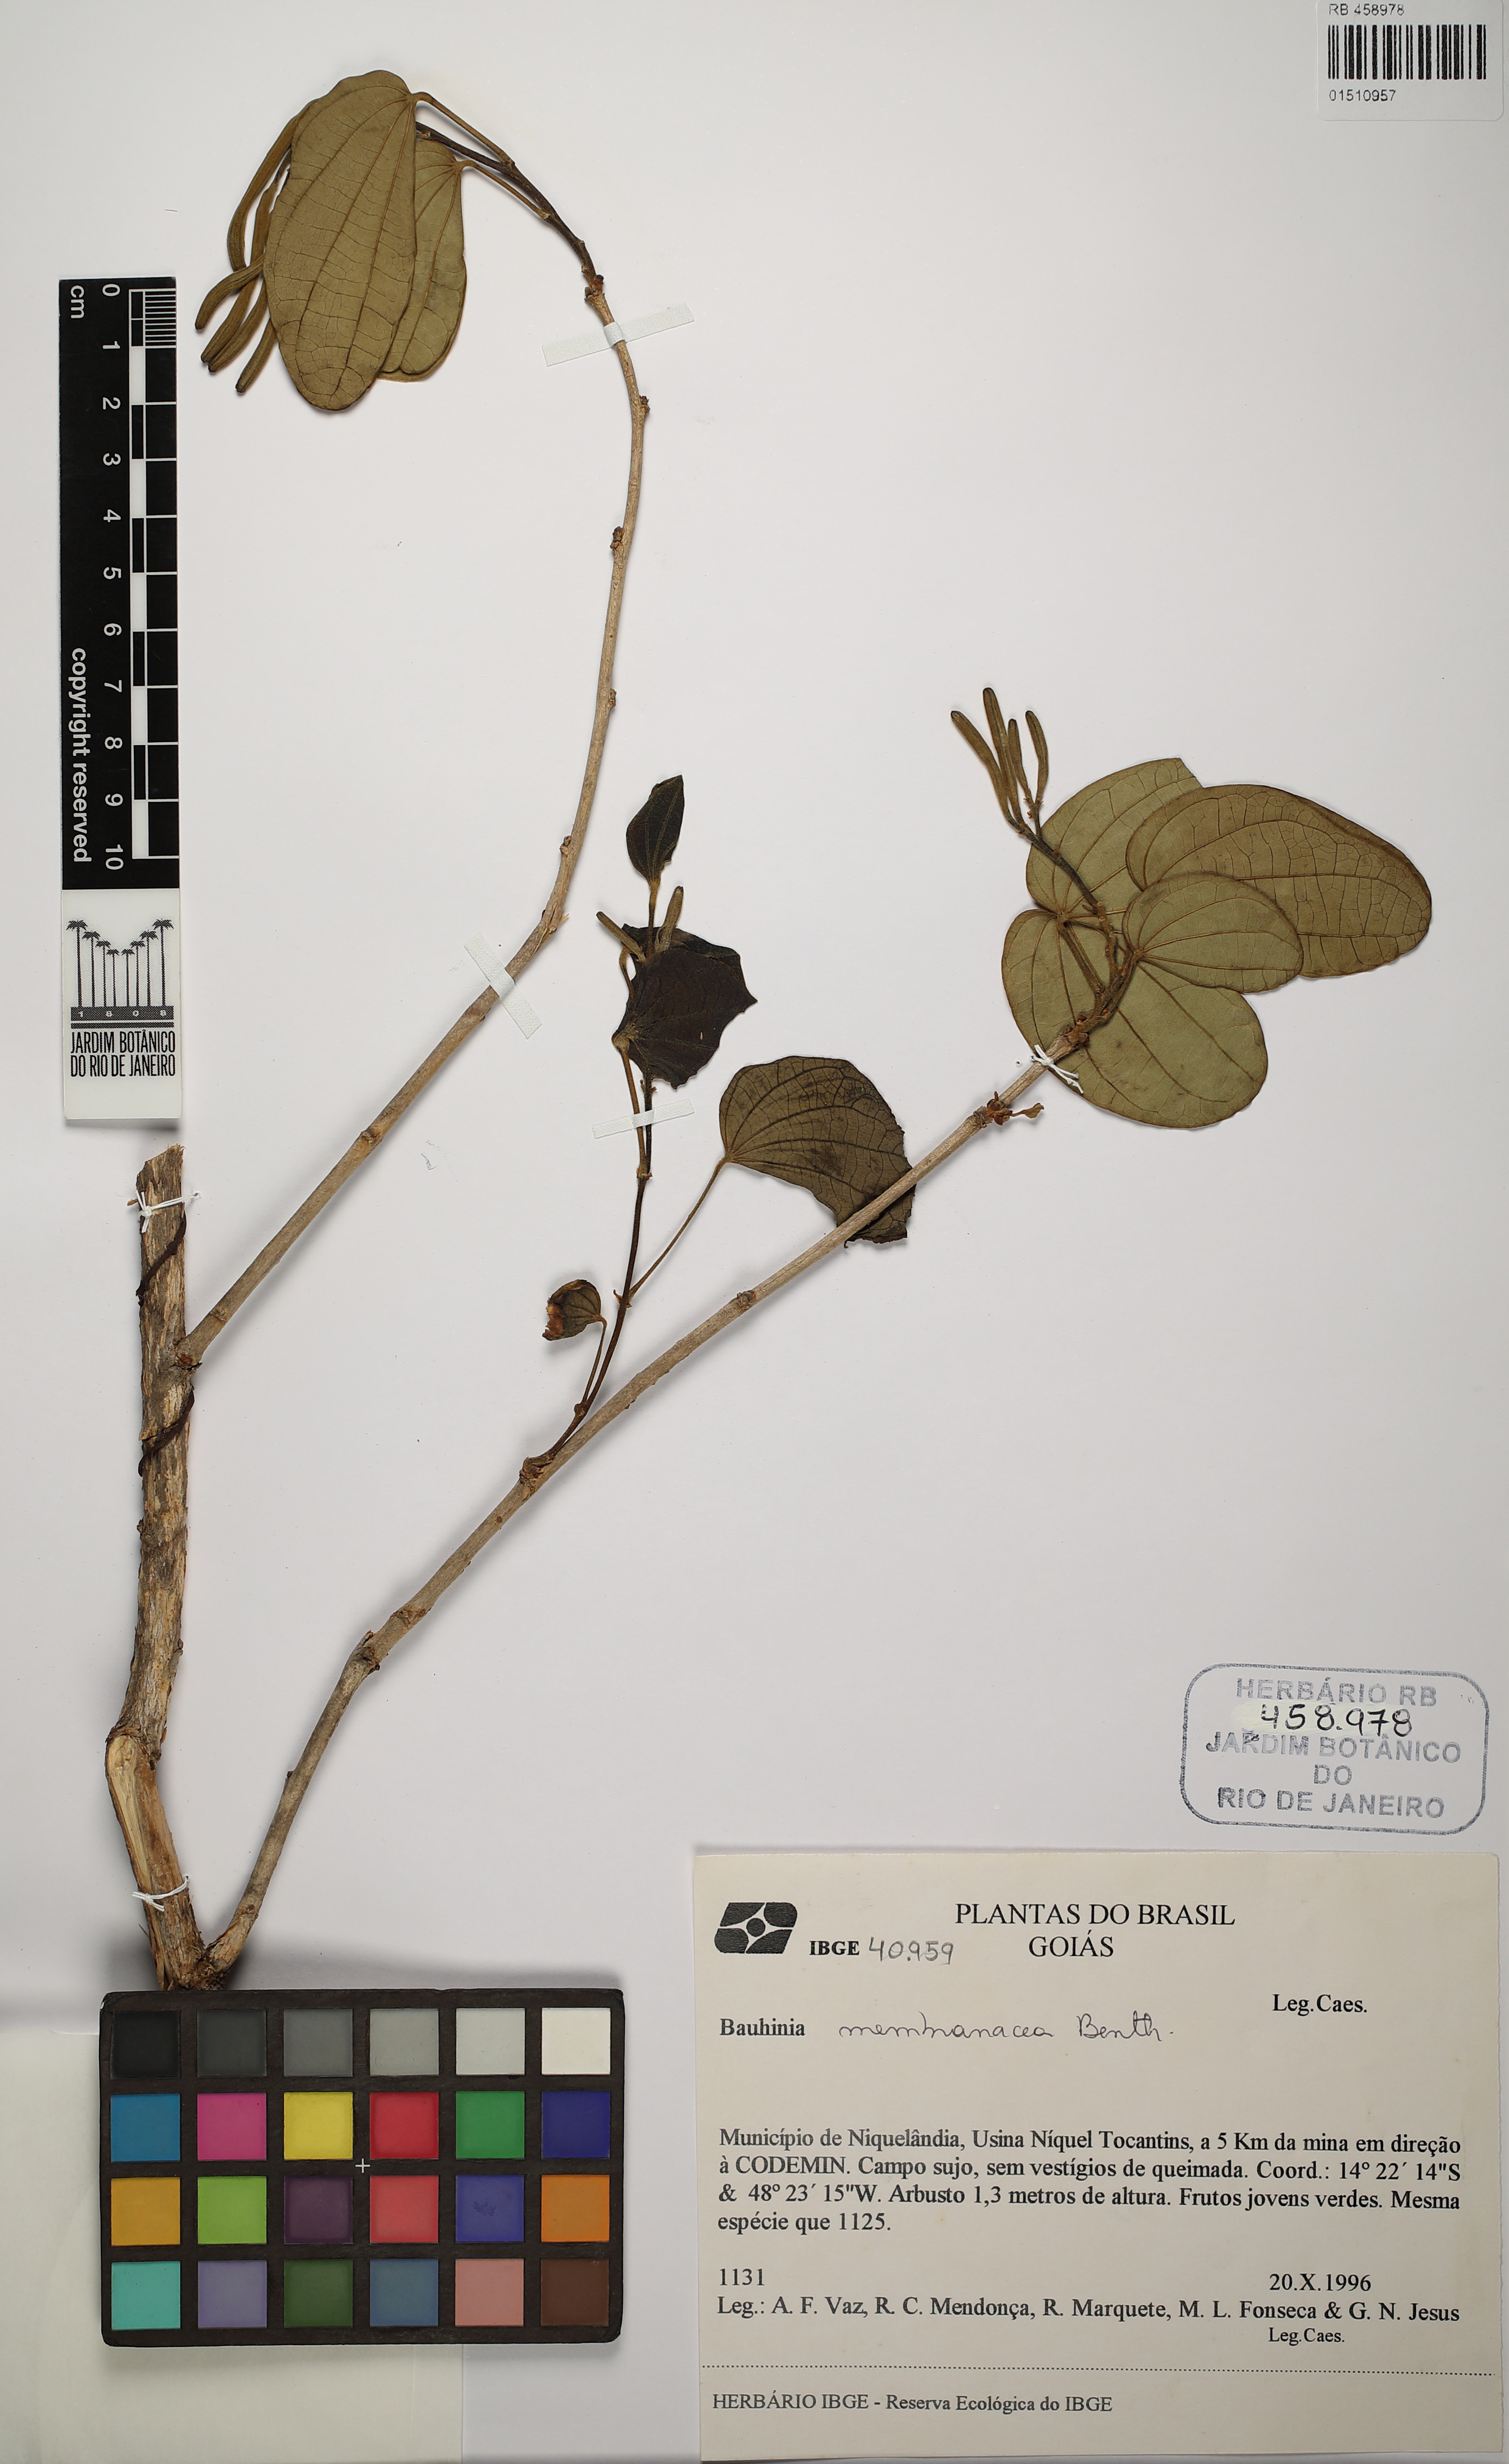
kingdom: Plantae
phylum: Tracheophyta
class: Magnoliopsida
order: Fabales
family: Fabaceae
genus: Bauhinia
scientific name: Bauhinia membranacea
